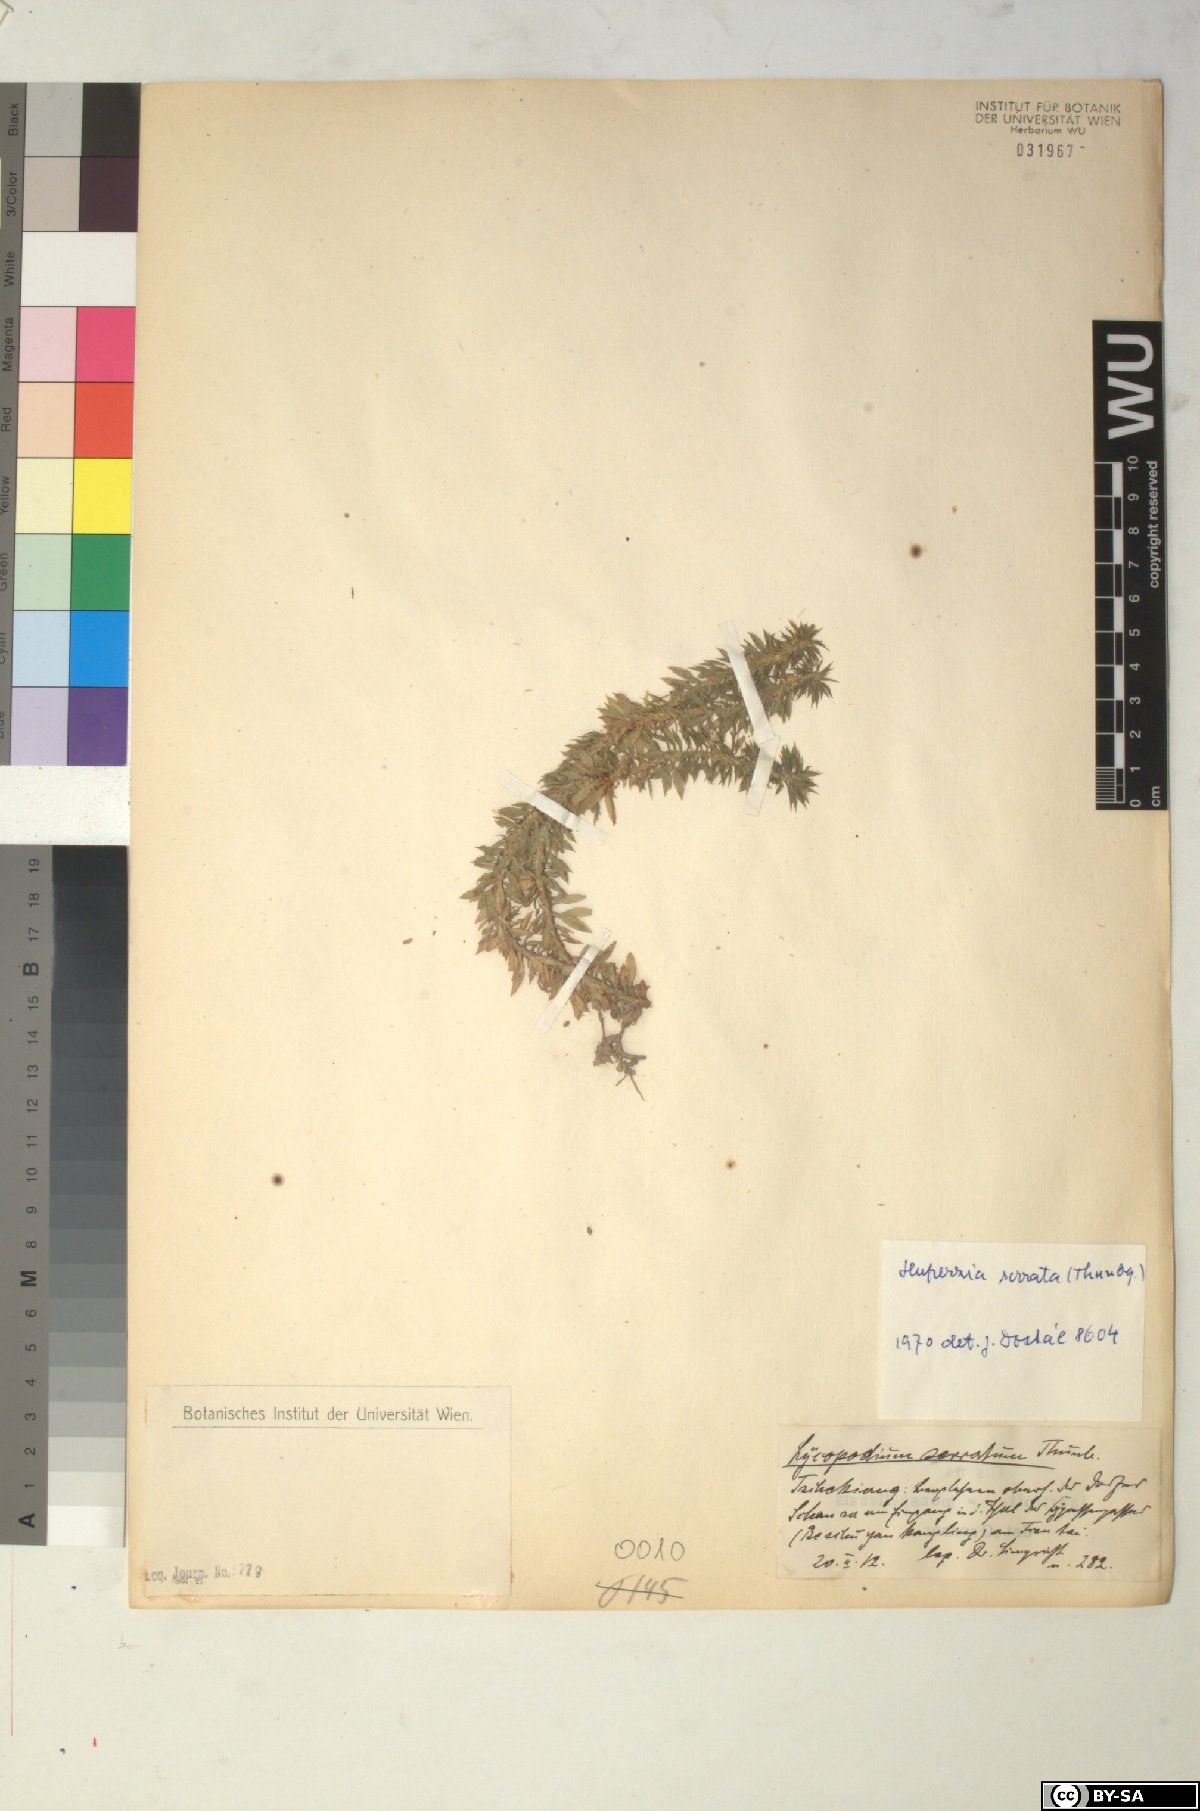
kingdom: Plantae
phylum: Tracheophyta
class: Lycopodiopsida
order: Lycopodiales
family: Lycopodiaceae
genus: Huperzia
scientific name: Huperzia serrata
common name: Toothed club-moss
